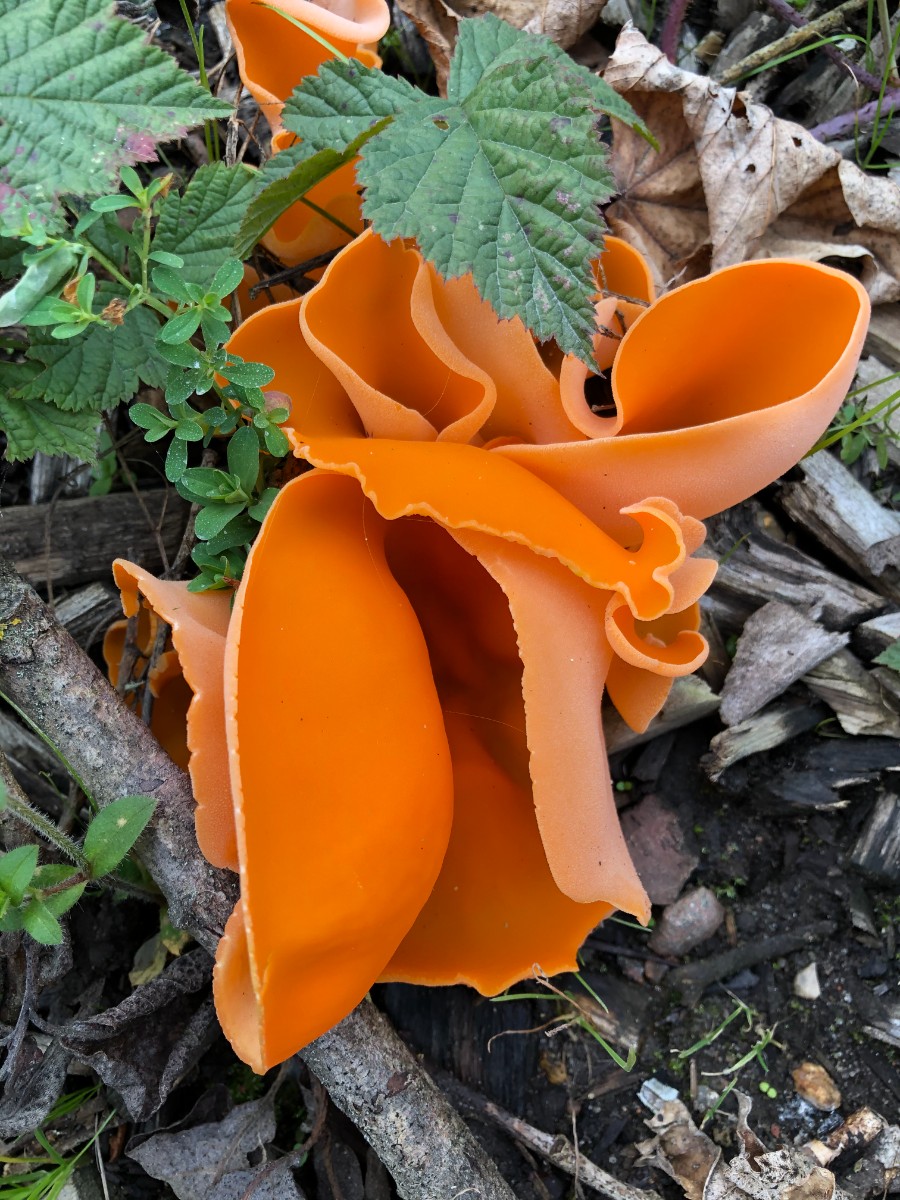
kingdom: Fungi
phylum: Ascomycota
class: Pezizomycetes
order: Pezizales
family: Pyronemataceae
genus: Aleuria
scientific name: Aleuria aurantia
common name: almindelig orangebæger
